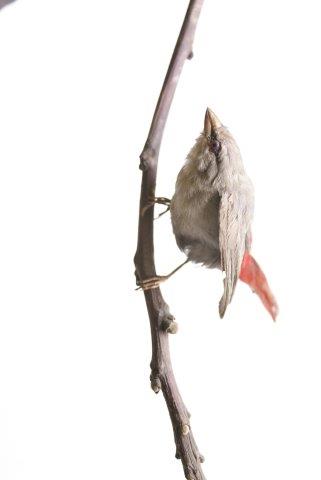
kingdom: Animalia
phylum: Chordata
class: Aves
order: Passeriformes
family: Estrildidae
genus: Estrilda
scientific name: Estrilda caerulescens
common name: Lavender waxbill
